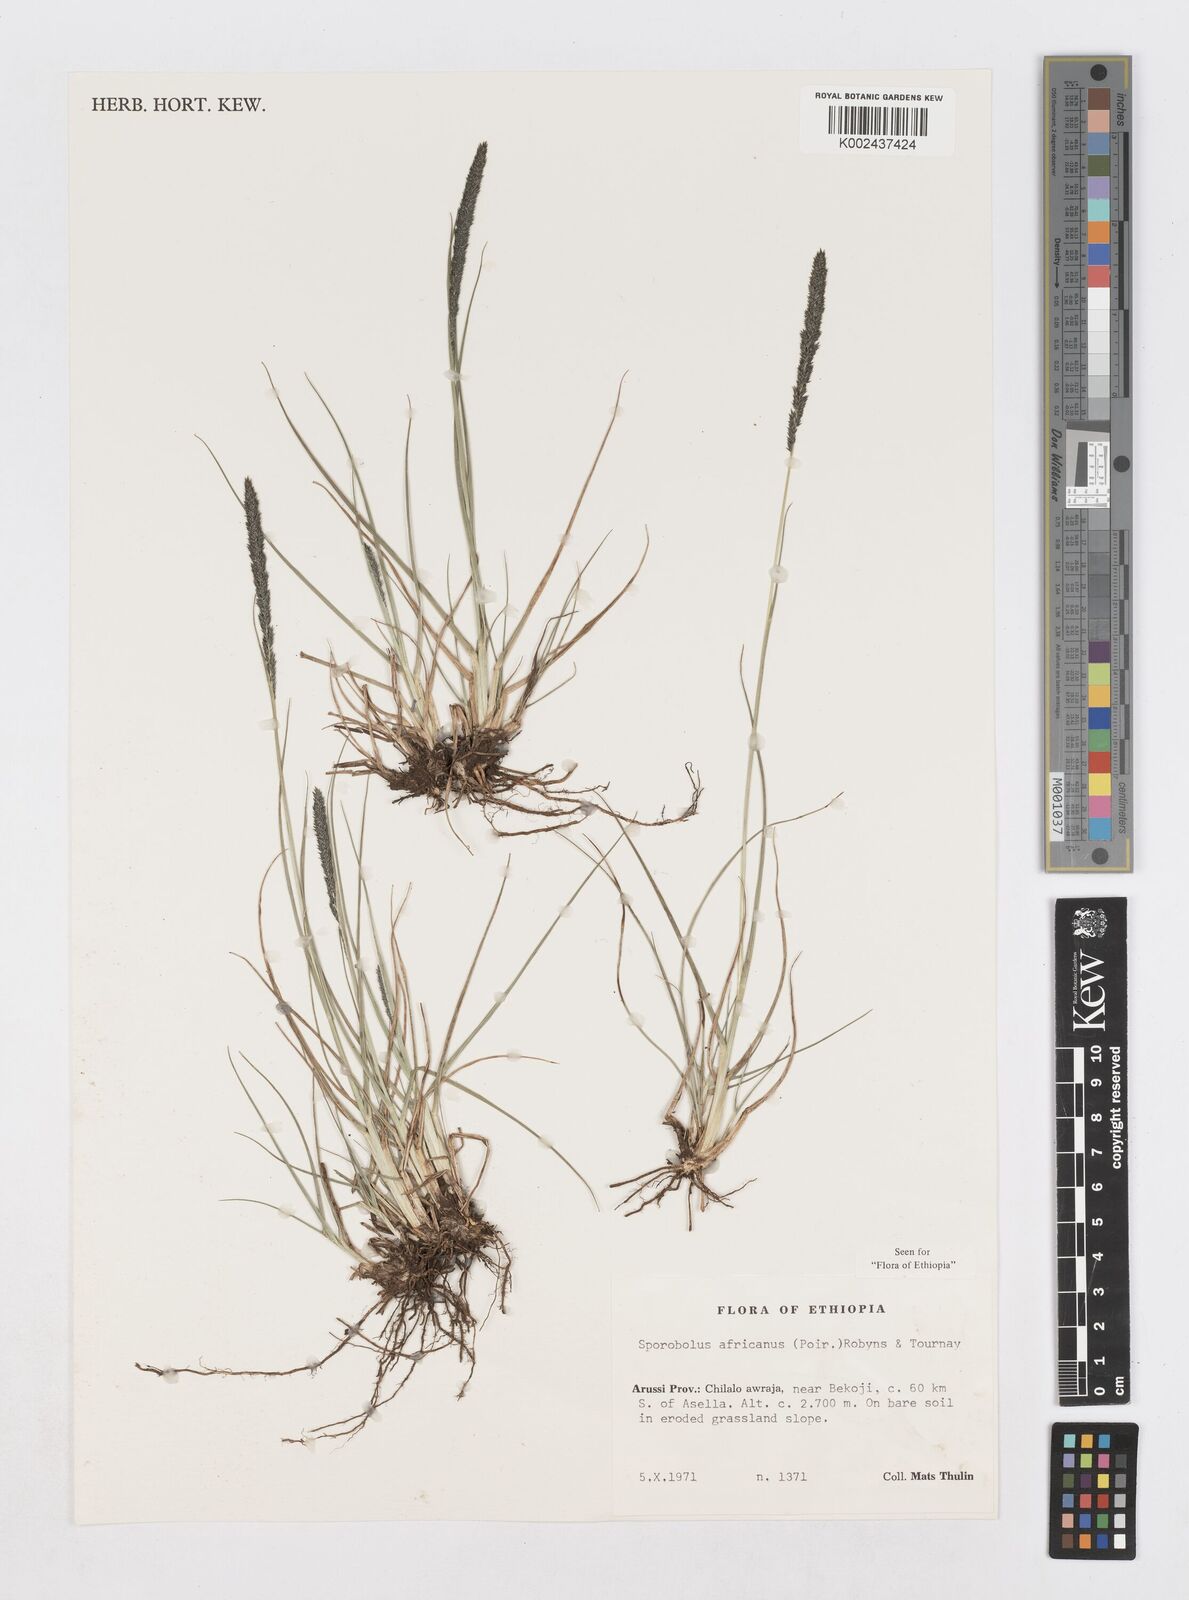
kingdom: Plantae
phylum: Tracheophyta
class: Liliopsida
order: Poales
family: Poaceae
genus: Sporobolus
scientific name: Sporobolus africanus
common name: African dropseed
